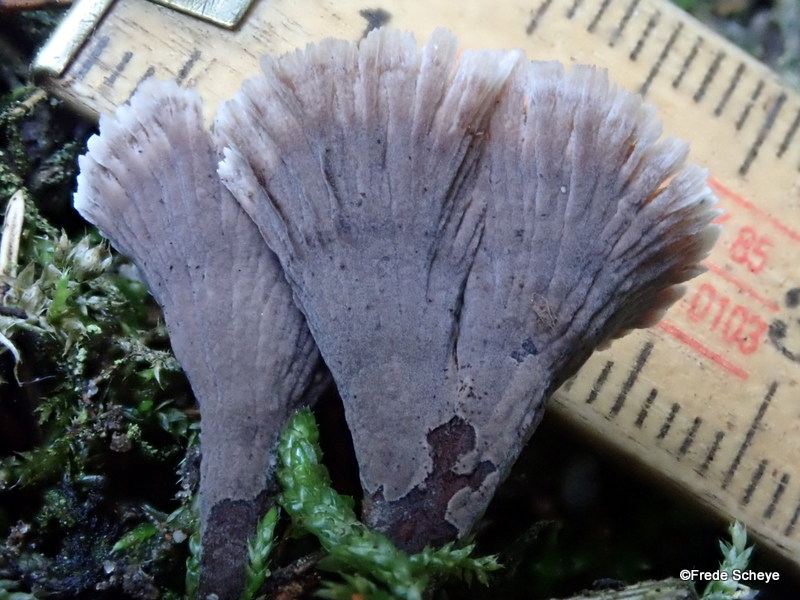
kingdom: Fungi
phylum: Basidiomycota
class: Agaricomycetes
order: Thelephorales
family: Thelephoraceae
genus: Thelephora
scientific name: Thelephora caryophyllea
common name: tragt-frynsesvamp
